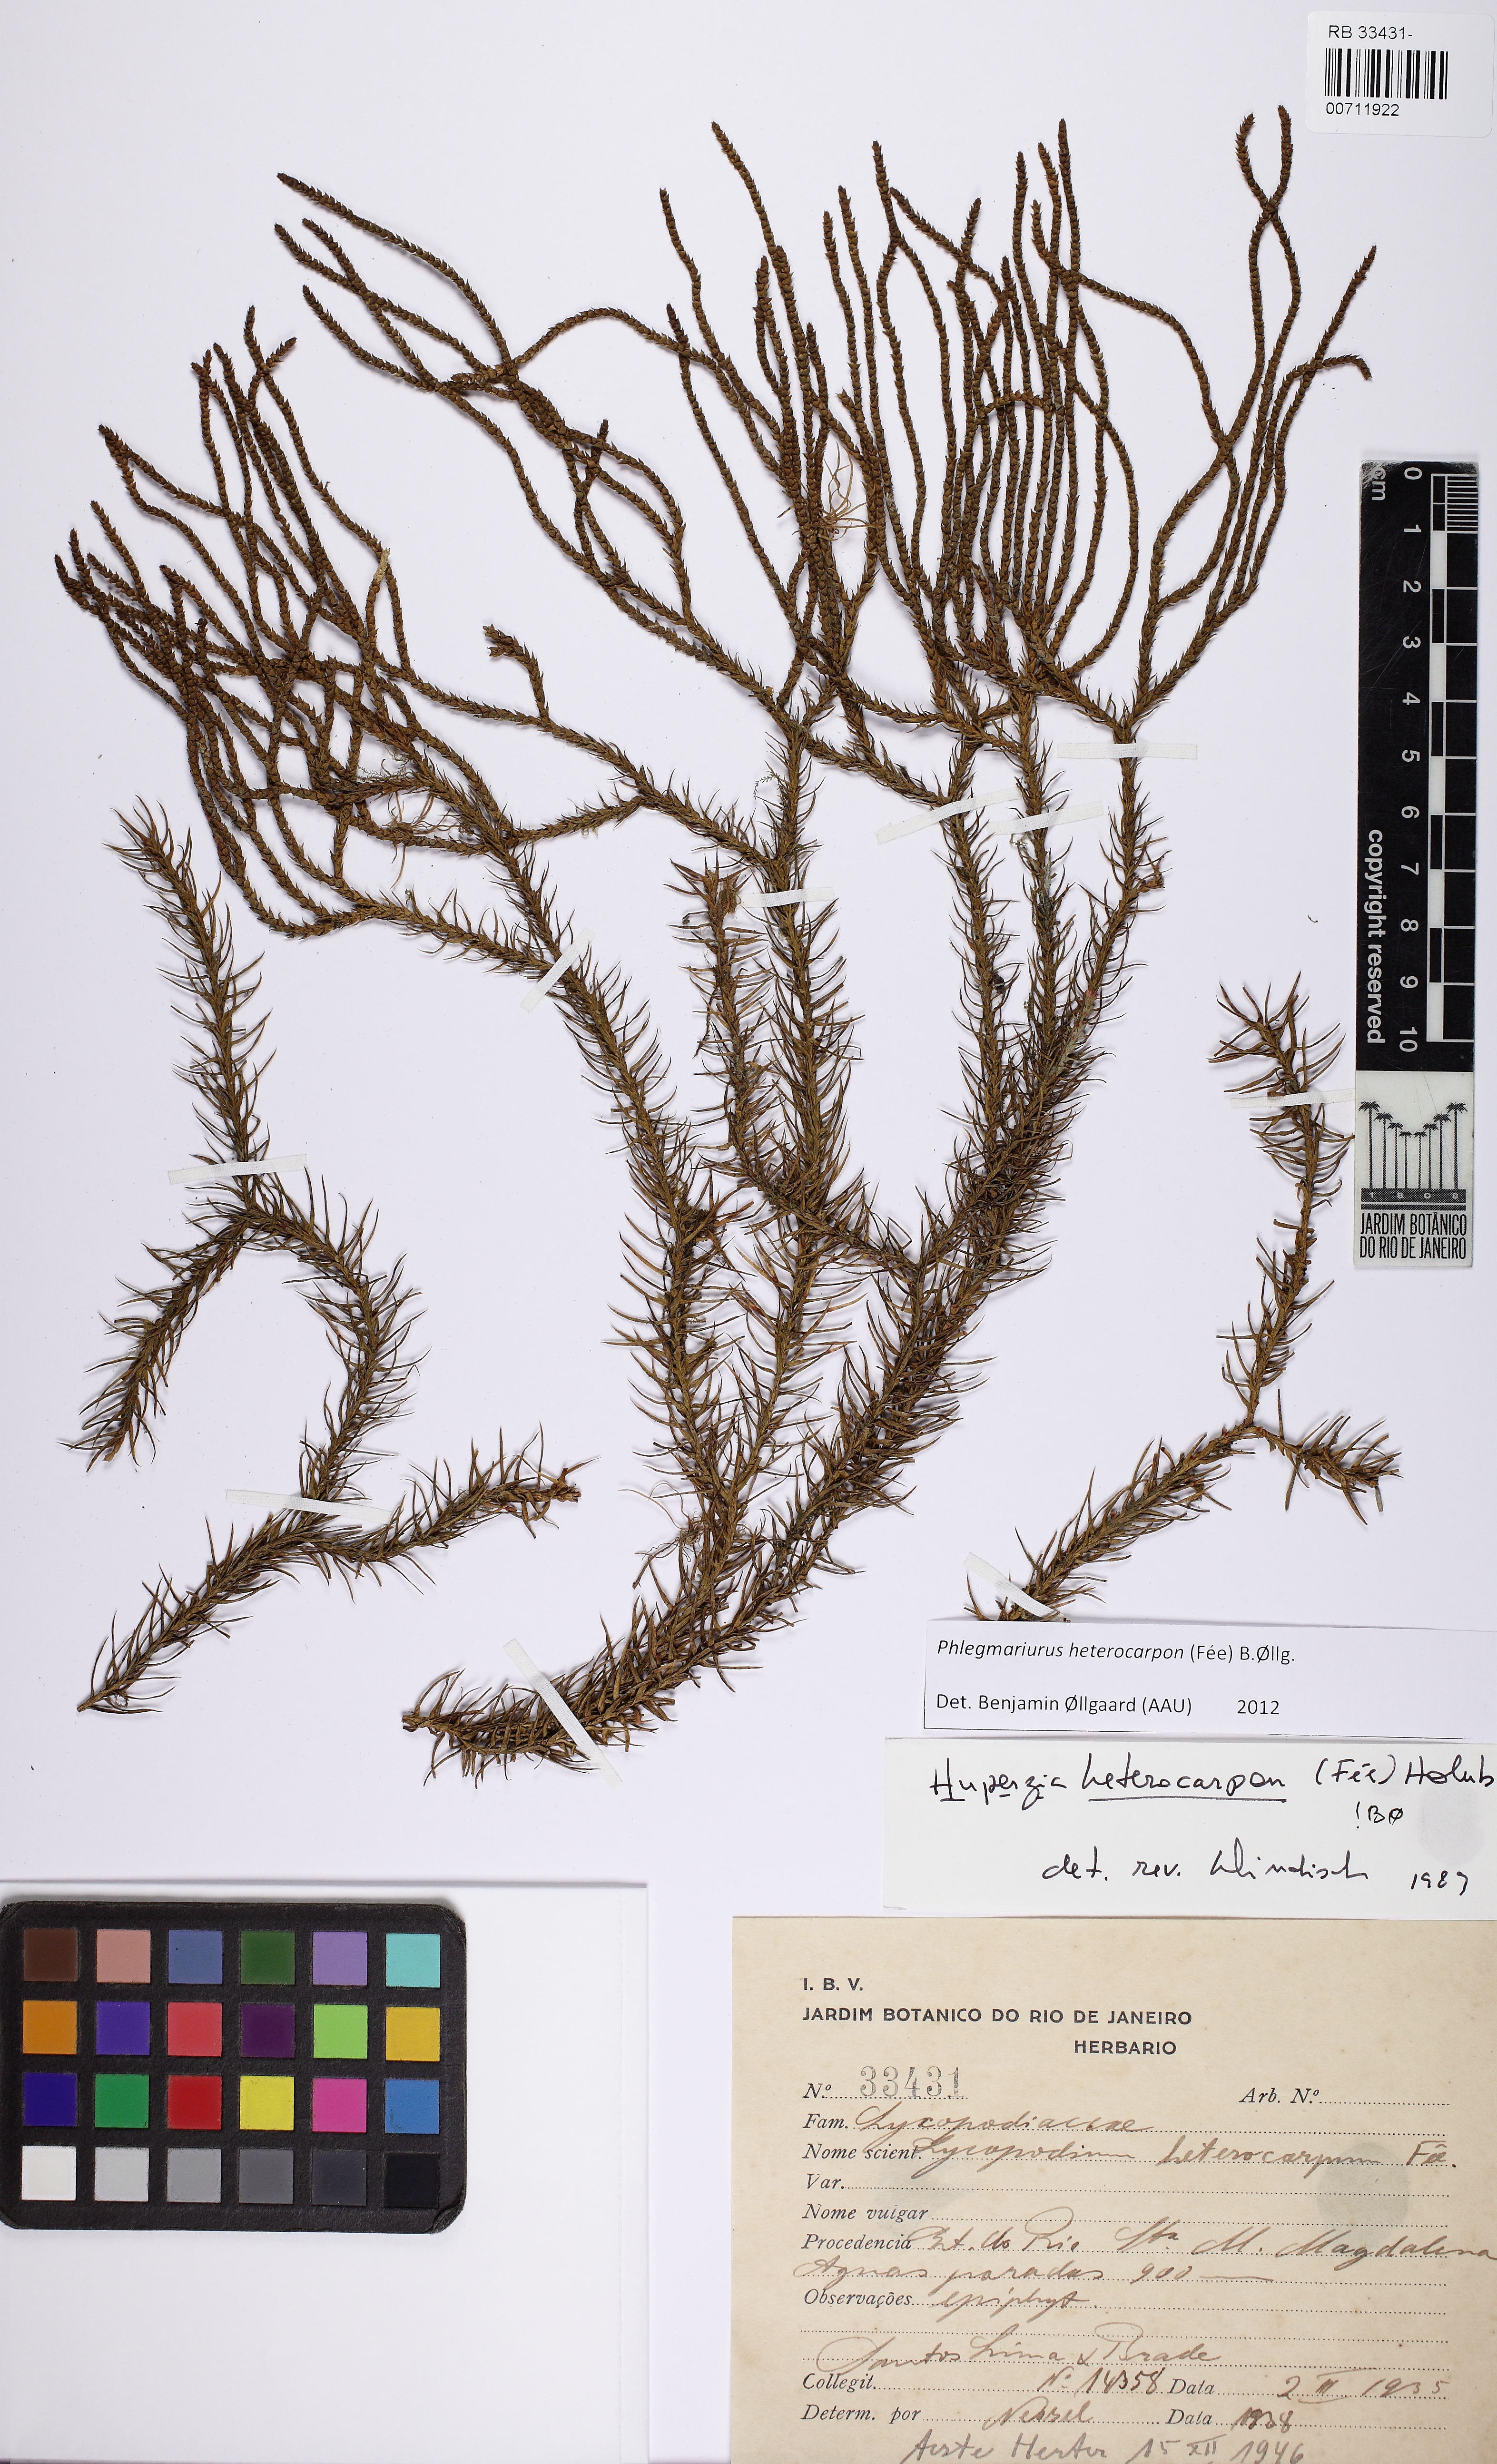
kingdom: Plantae
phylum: Tracheophyta
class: Lycopodiopsida
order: Lycopodiales
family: Lycopodiaceae
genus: Phlegmariurus
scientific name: Phlegmariurus heterocarpos
